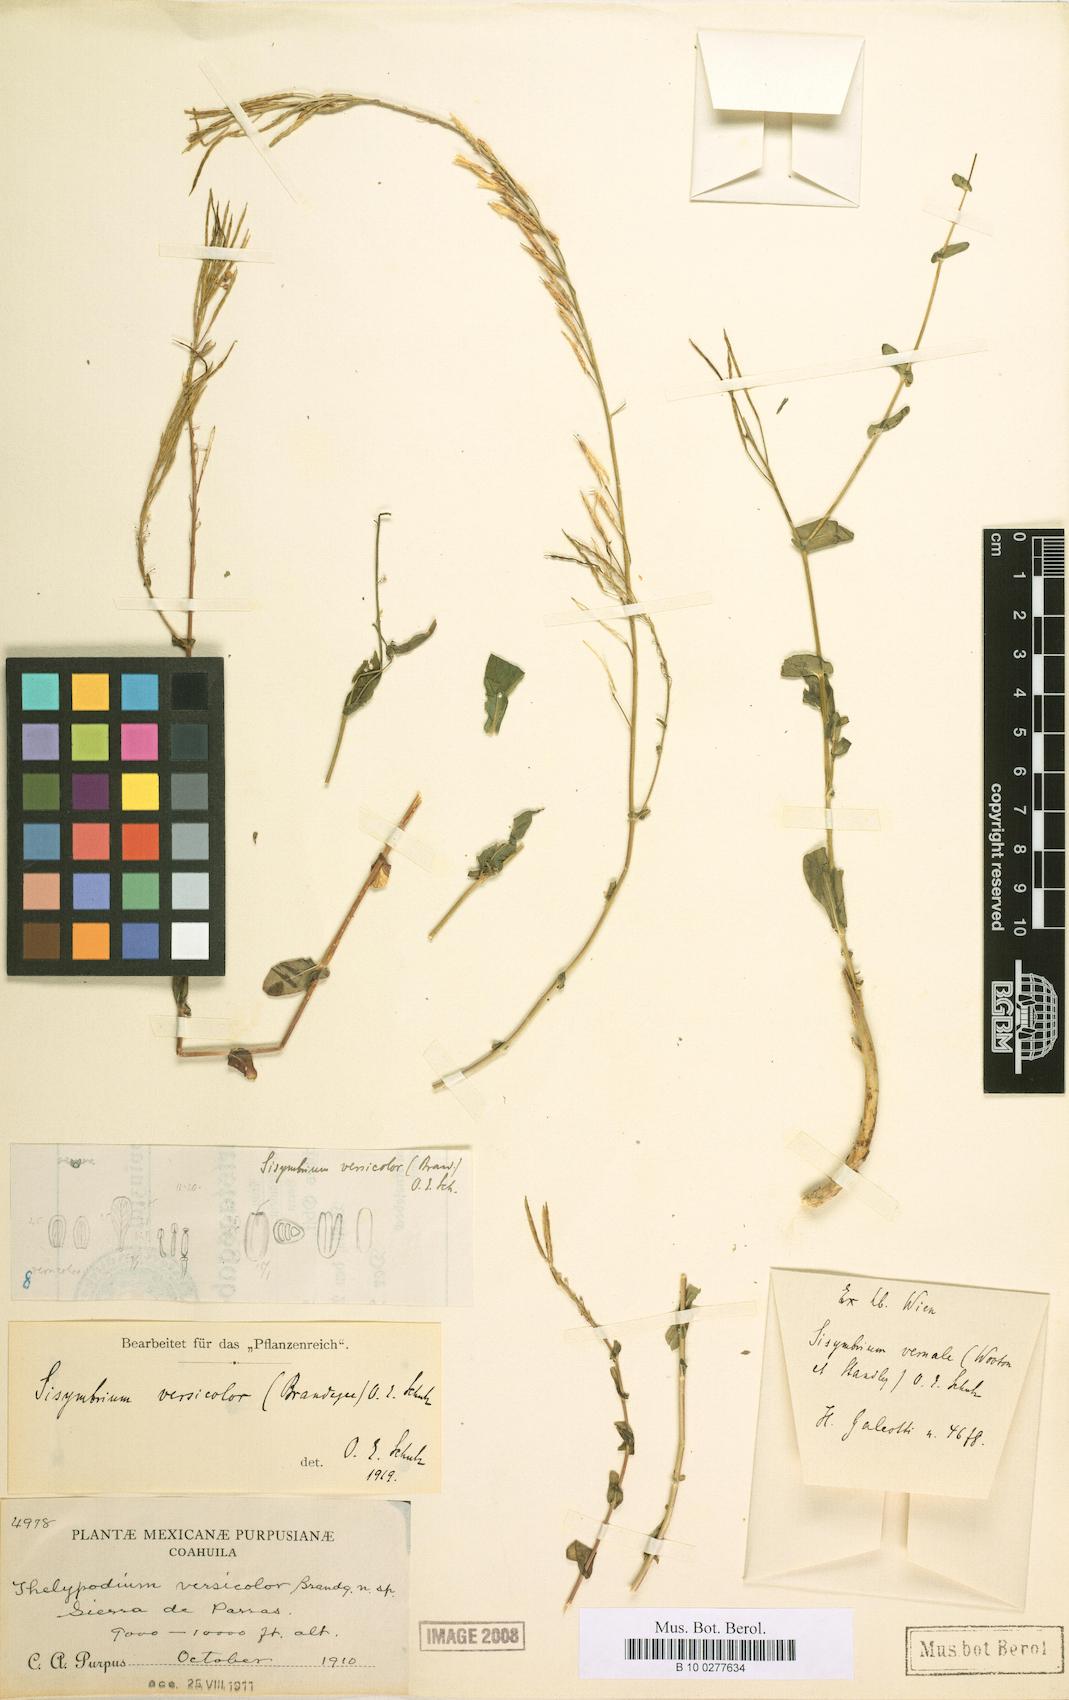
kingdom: Plantae
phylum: Tracheophyta
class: Magnoliopsida
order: Brassicales
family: Brassicaceae
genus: Mostacillastrum
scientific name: Mostacillastrum versicolor
